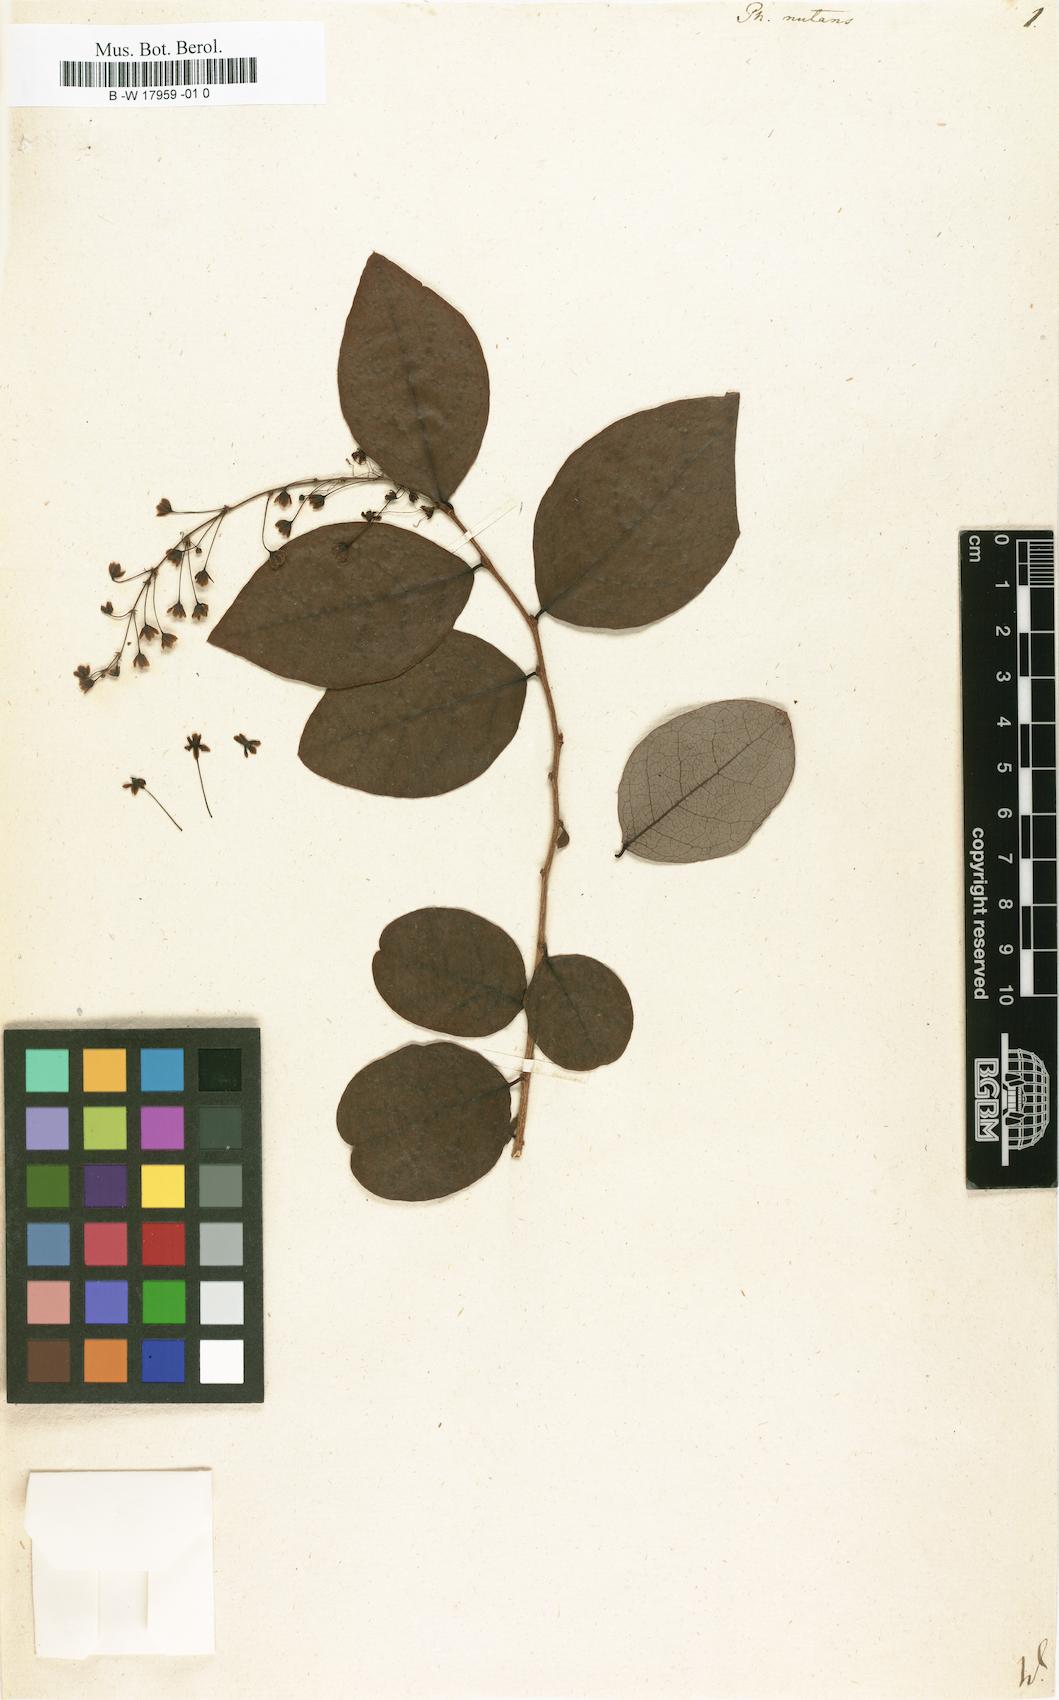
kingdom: Plantae
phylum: Tracheophyta
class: Magnoliopsida
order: Malpighiales
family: Phyllanthaceae
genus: Phyllanthus
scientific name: Phyllanthus nutans
